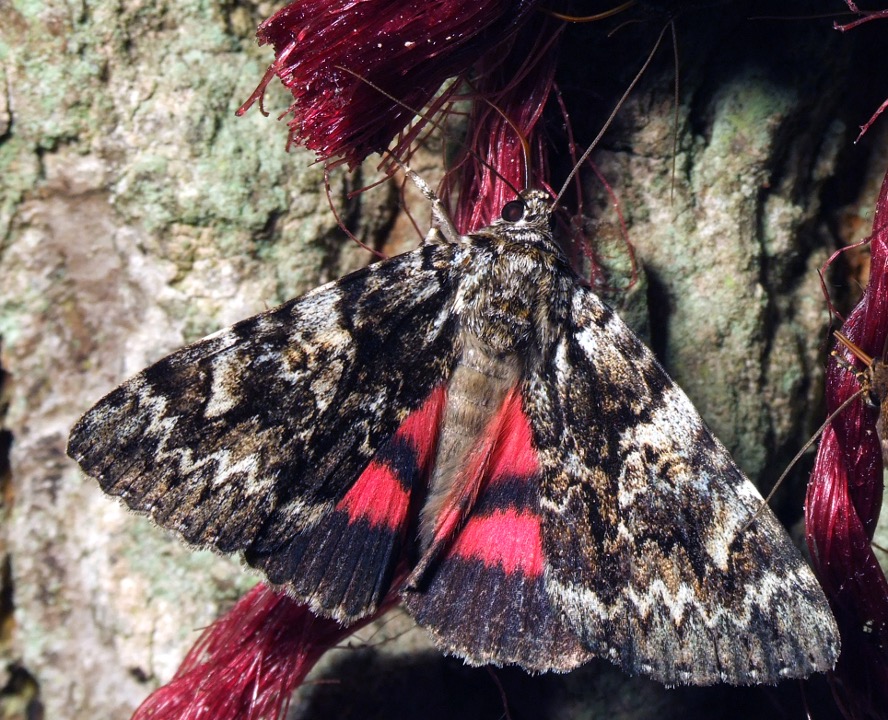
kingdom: Animalia
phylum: Arthropoda
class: Insecta
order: Lepidoptera
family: Erebidae
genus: Catocala
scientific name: Catocala promissa
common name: Egeordensbånd
